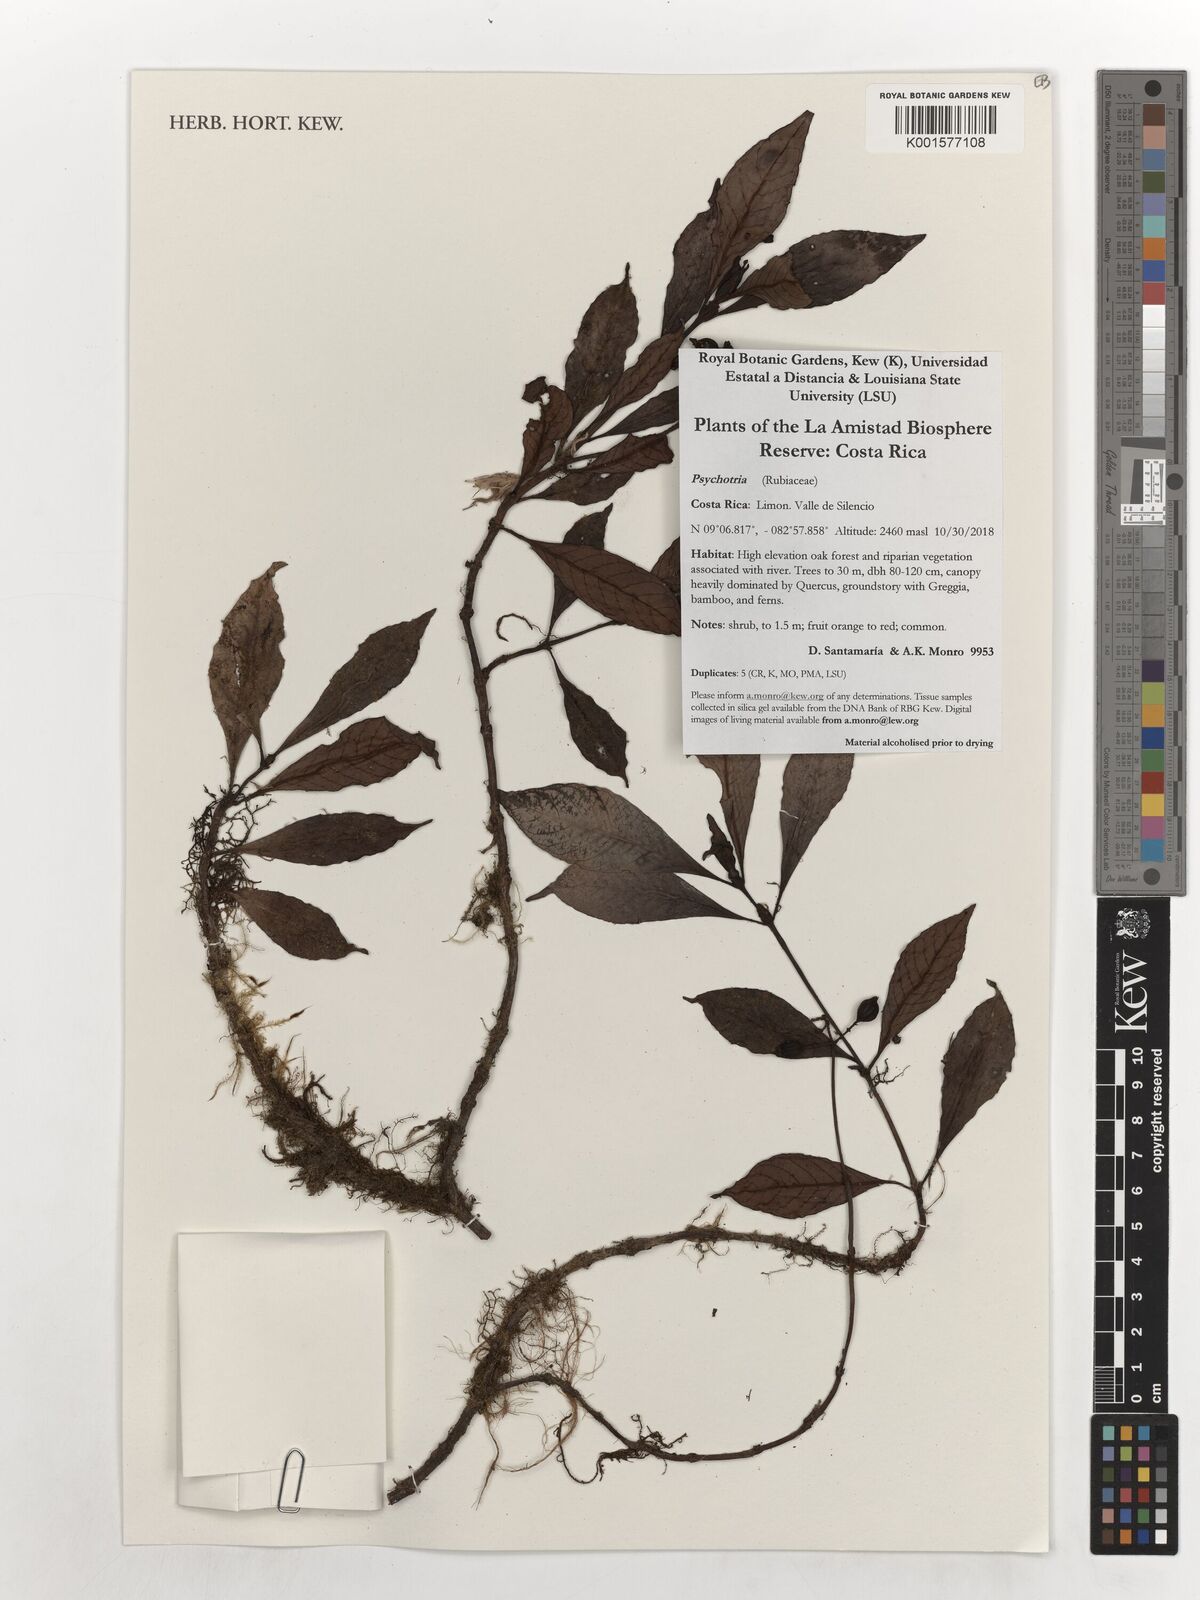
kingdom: Plantae
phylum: Tracheophyta
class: Magnoliopsida
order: Gentianales
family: Rubiaceae
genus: Psychotria
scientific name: Psychotria
